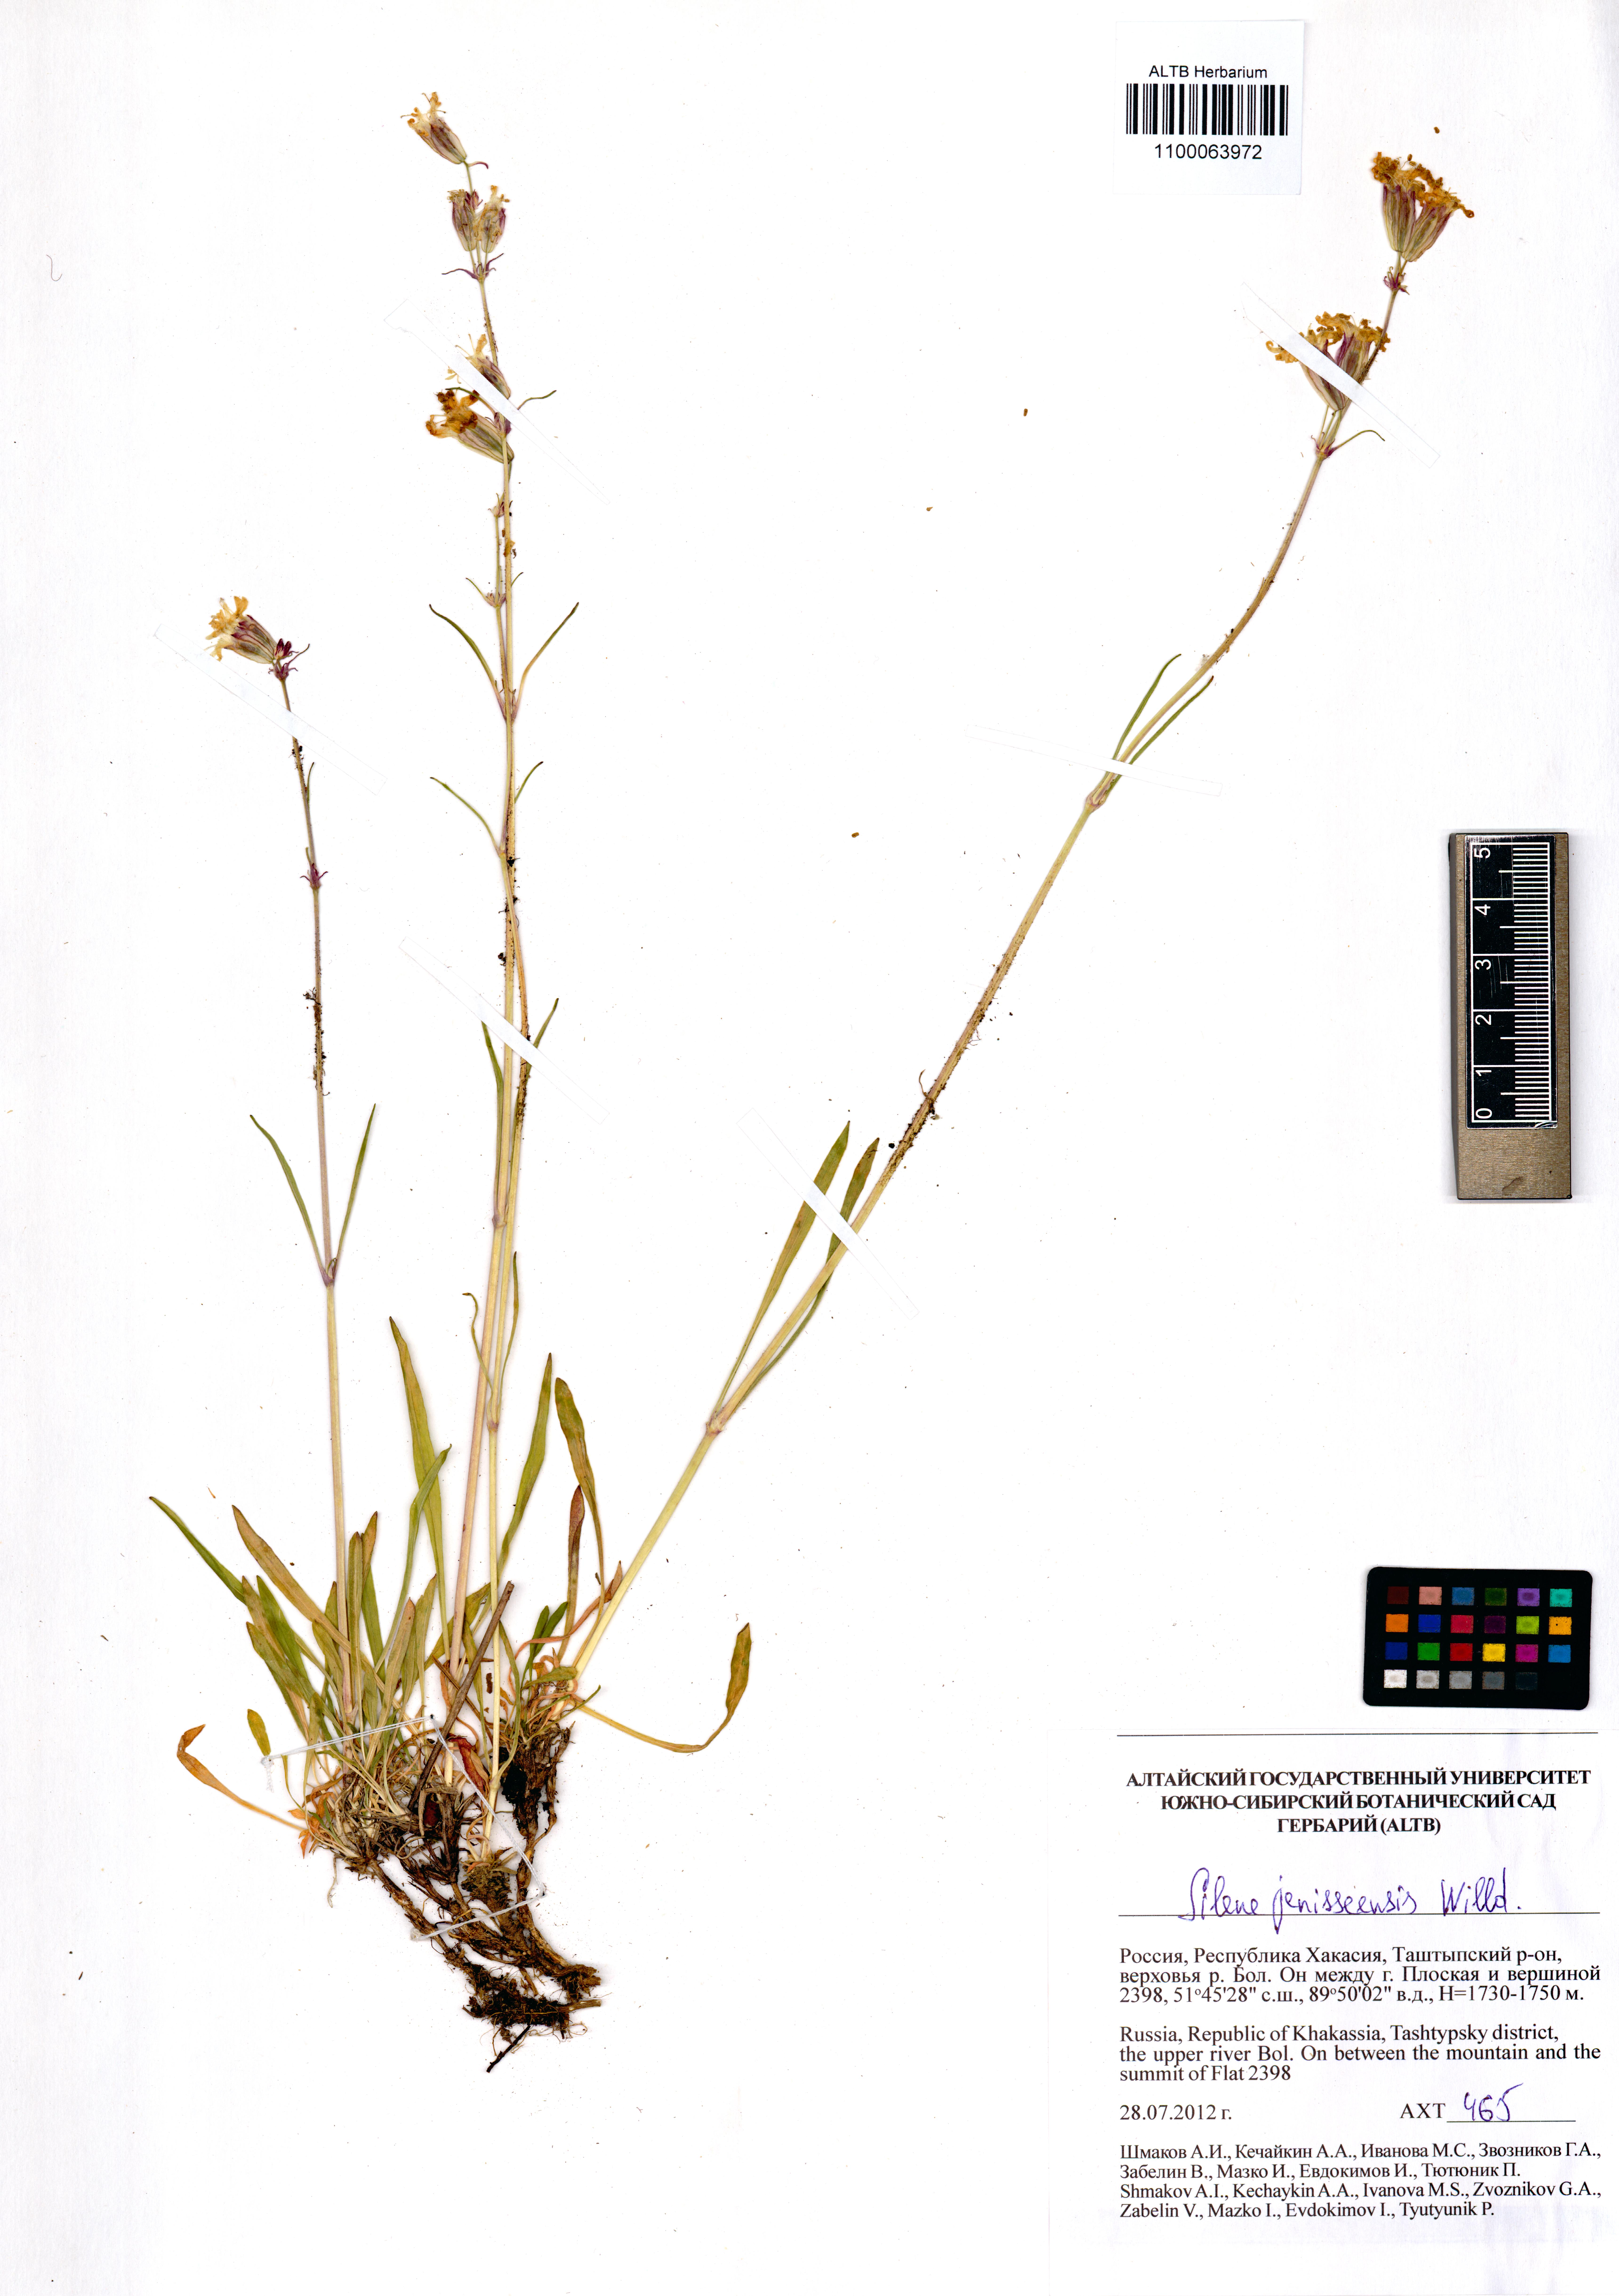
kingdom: Plantae
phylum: Tracheophyta
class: Magnoliopsida
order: Caryophyllales
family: Caryophyllaceae
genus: Silene
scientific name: Silene jeniseensis
